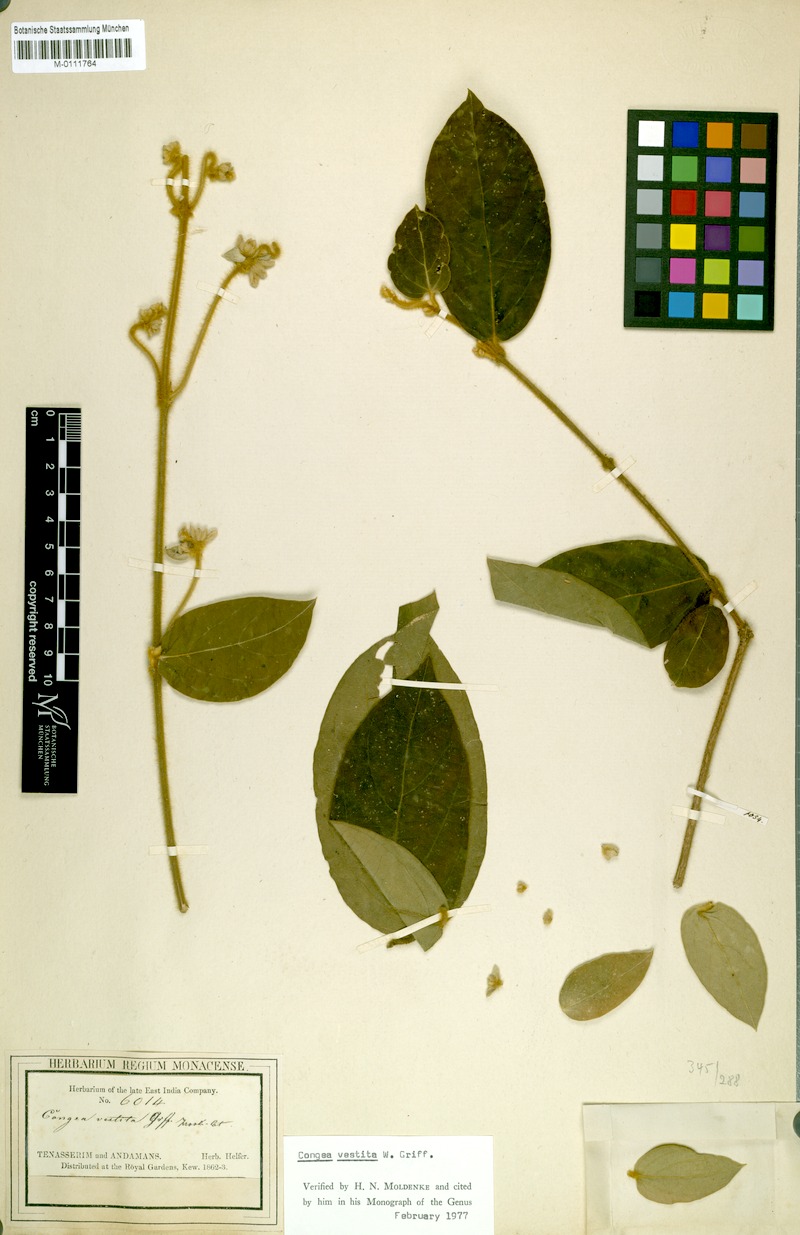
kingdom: Plantae
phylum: Tracheophyta
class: Magnoliopsida
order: Lamiales
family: Lamiaceae
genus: Congea
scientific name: Congea vestita
